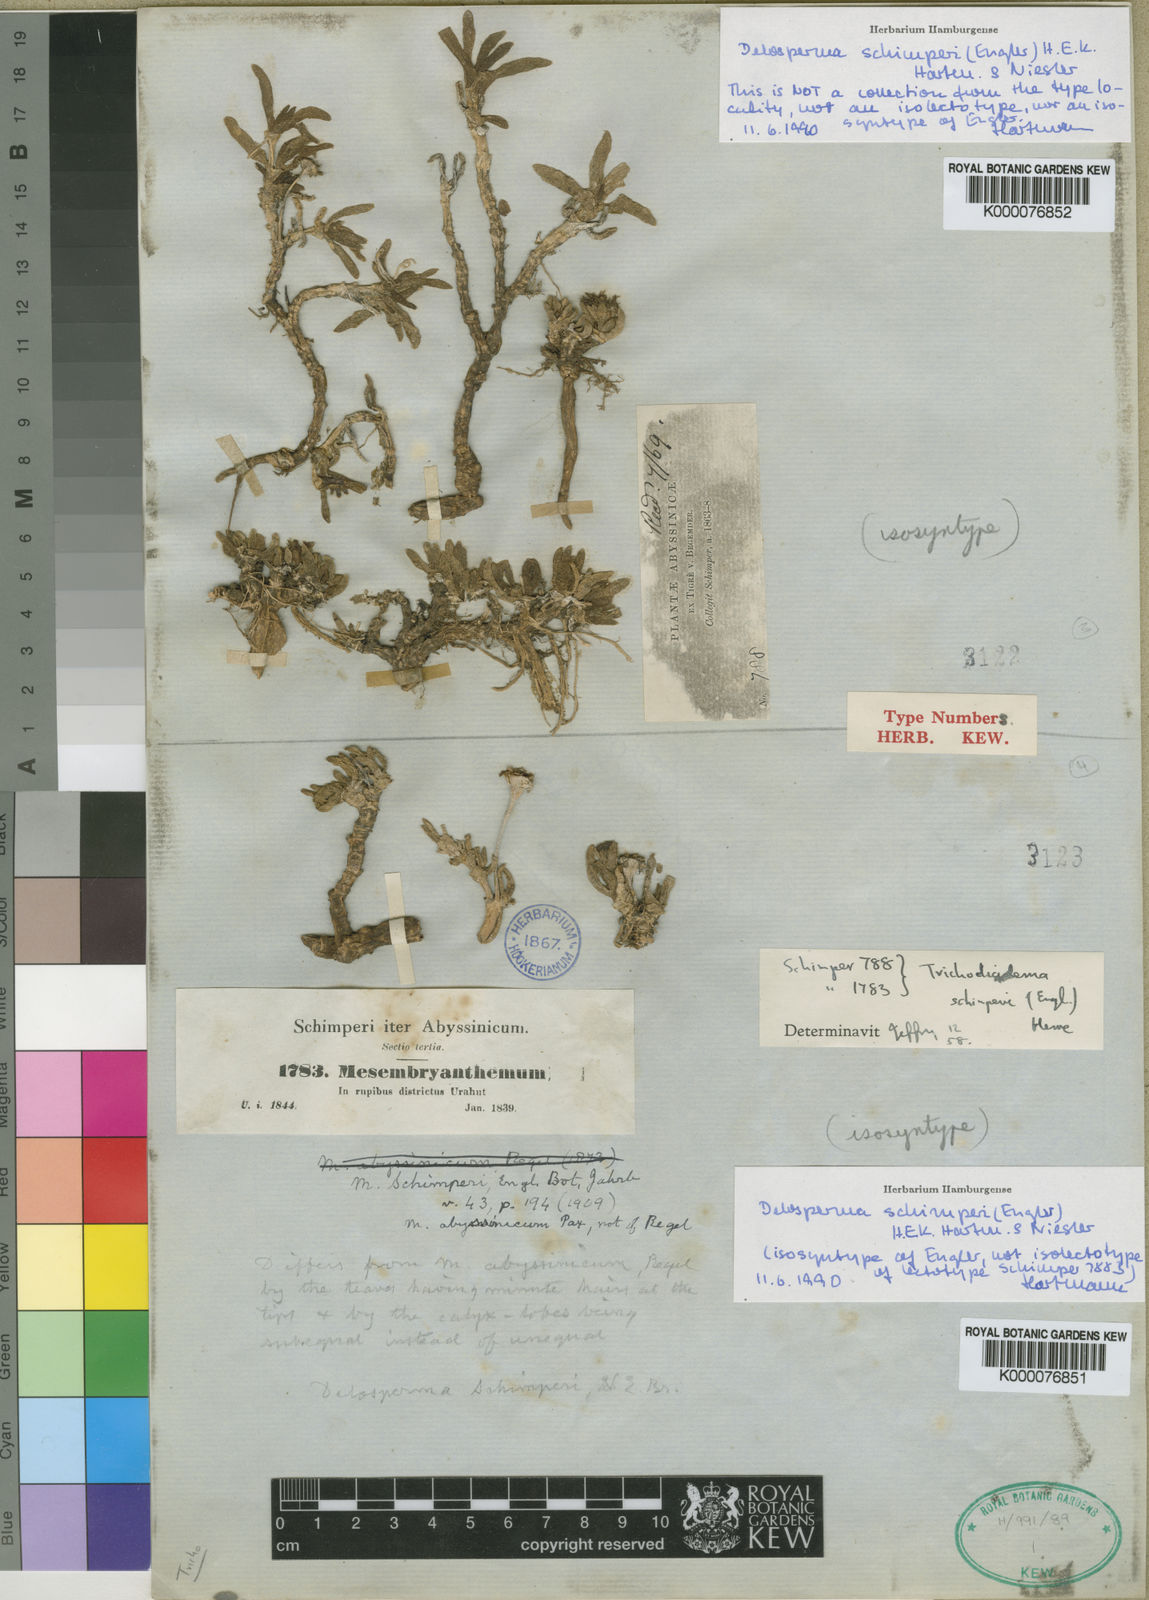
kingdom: Plantae
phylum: Tracheophyta
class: Magnoliopsida
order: Caryophyllales
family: Aizoaceae
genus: Delosperma
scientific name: Delosperma schimperi
